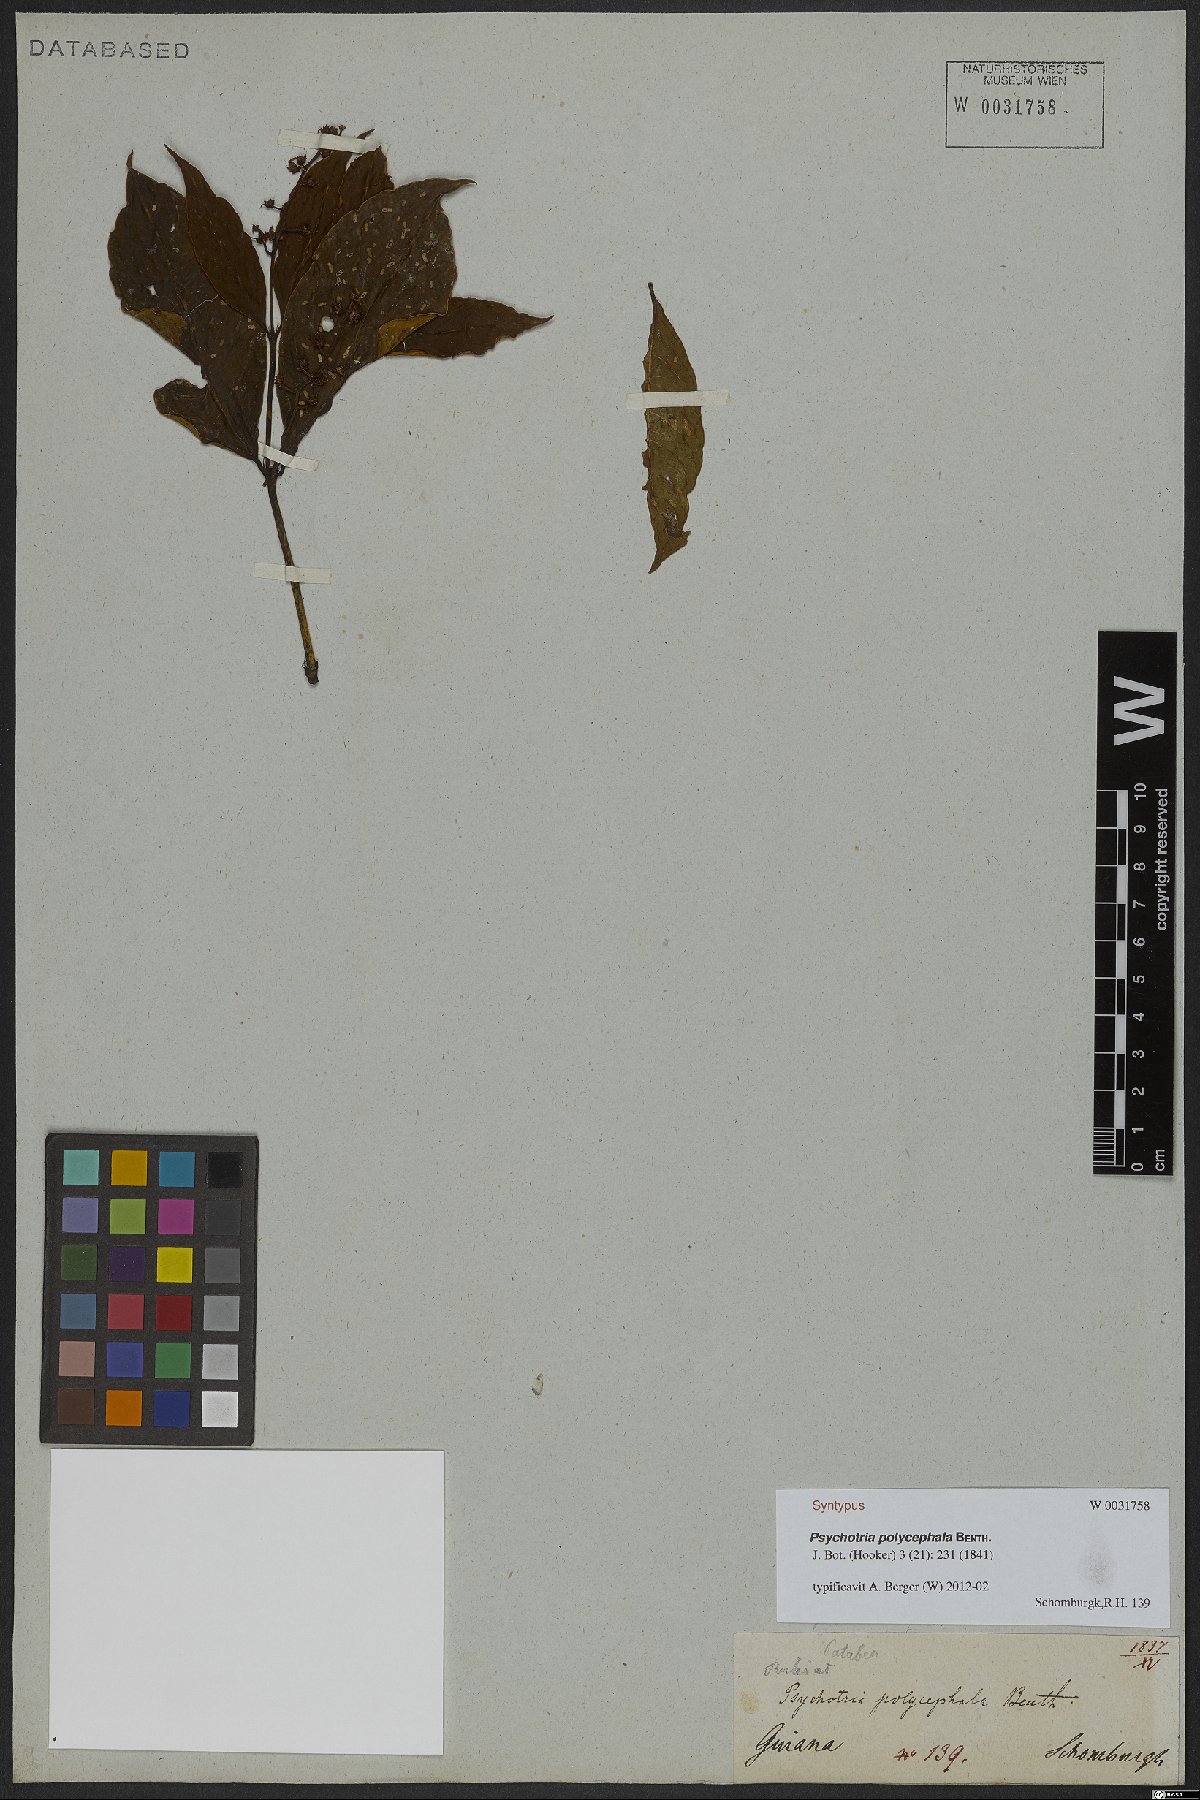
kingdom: Plantae
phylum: Tracheophyta
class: Magnoliopsida
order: Gentianales
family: Rubiaceae
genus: Palicourea
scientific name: Palicourea polycephala
